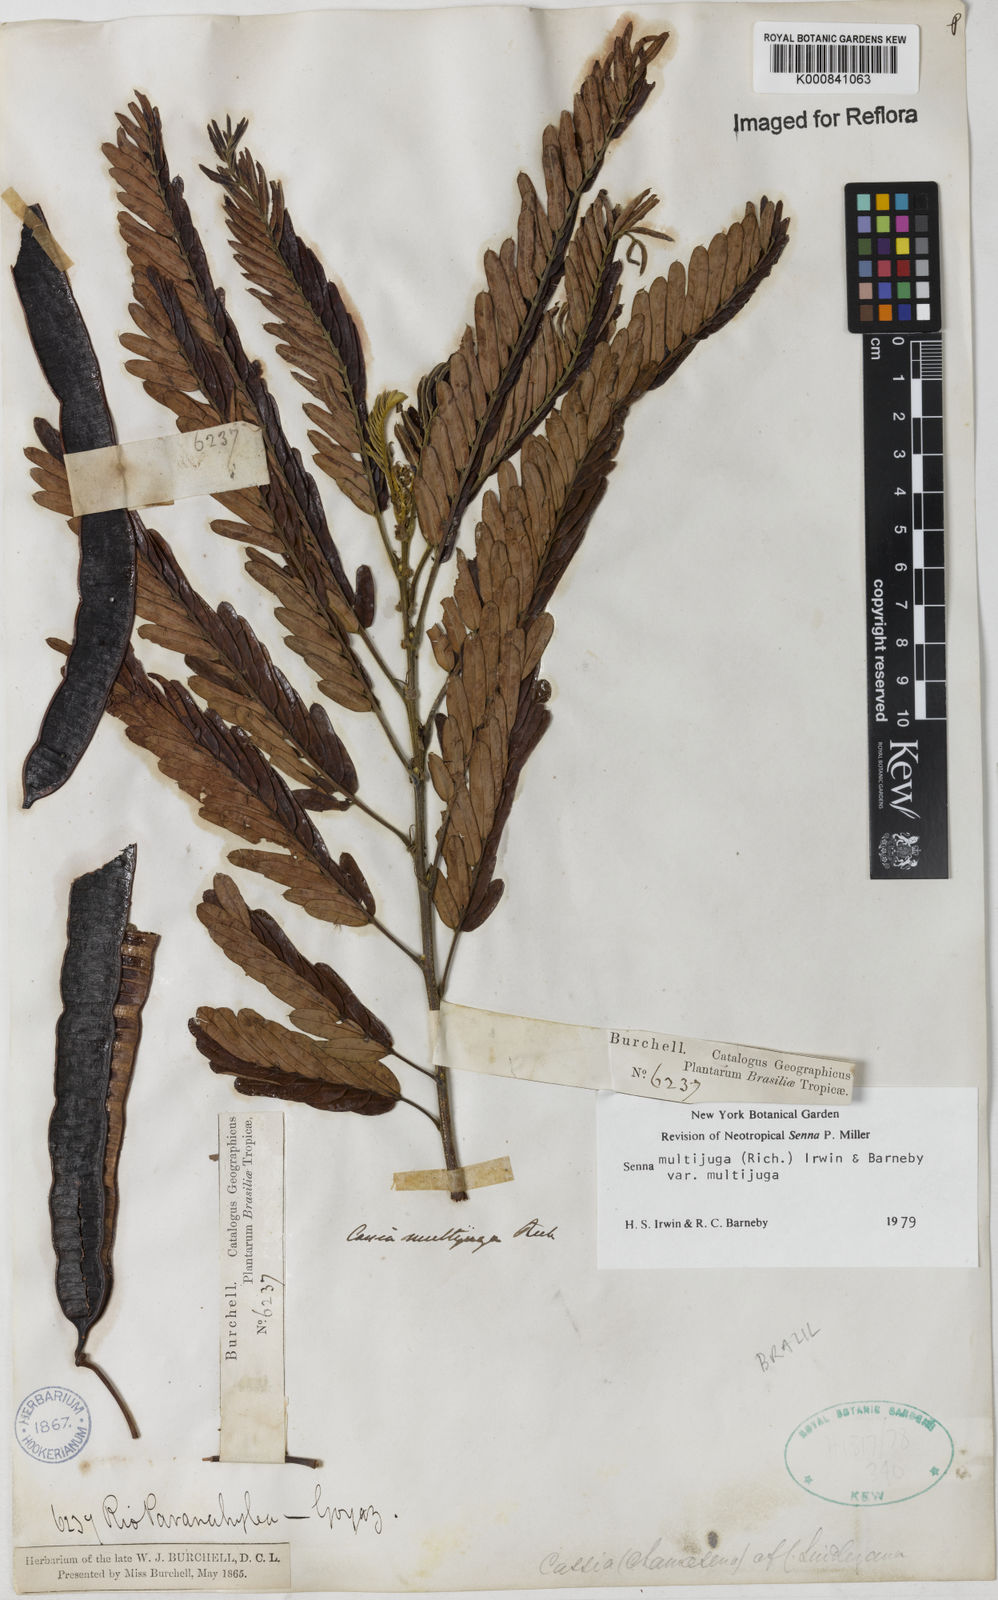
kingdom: Plantae
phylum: Tracheophyta
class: Magnoliopsida
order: Fabales
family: Fabaceae
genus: Senna
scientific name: Senna multijuga
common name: False sicklepod
